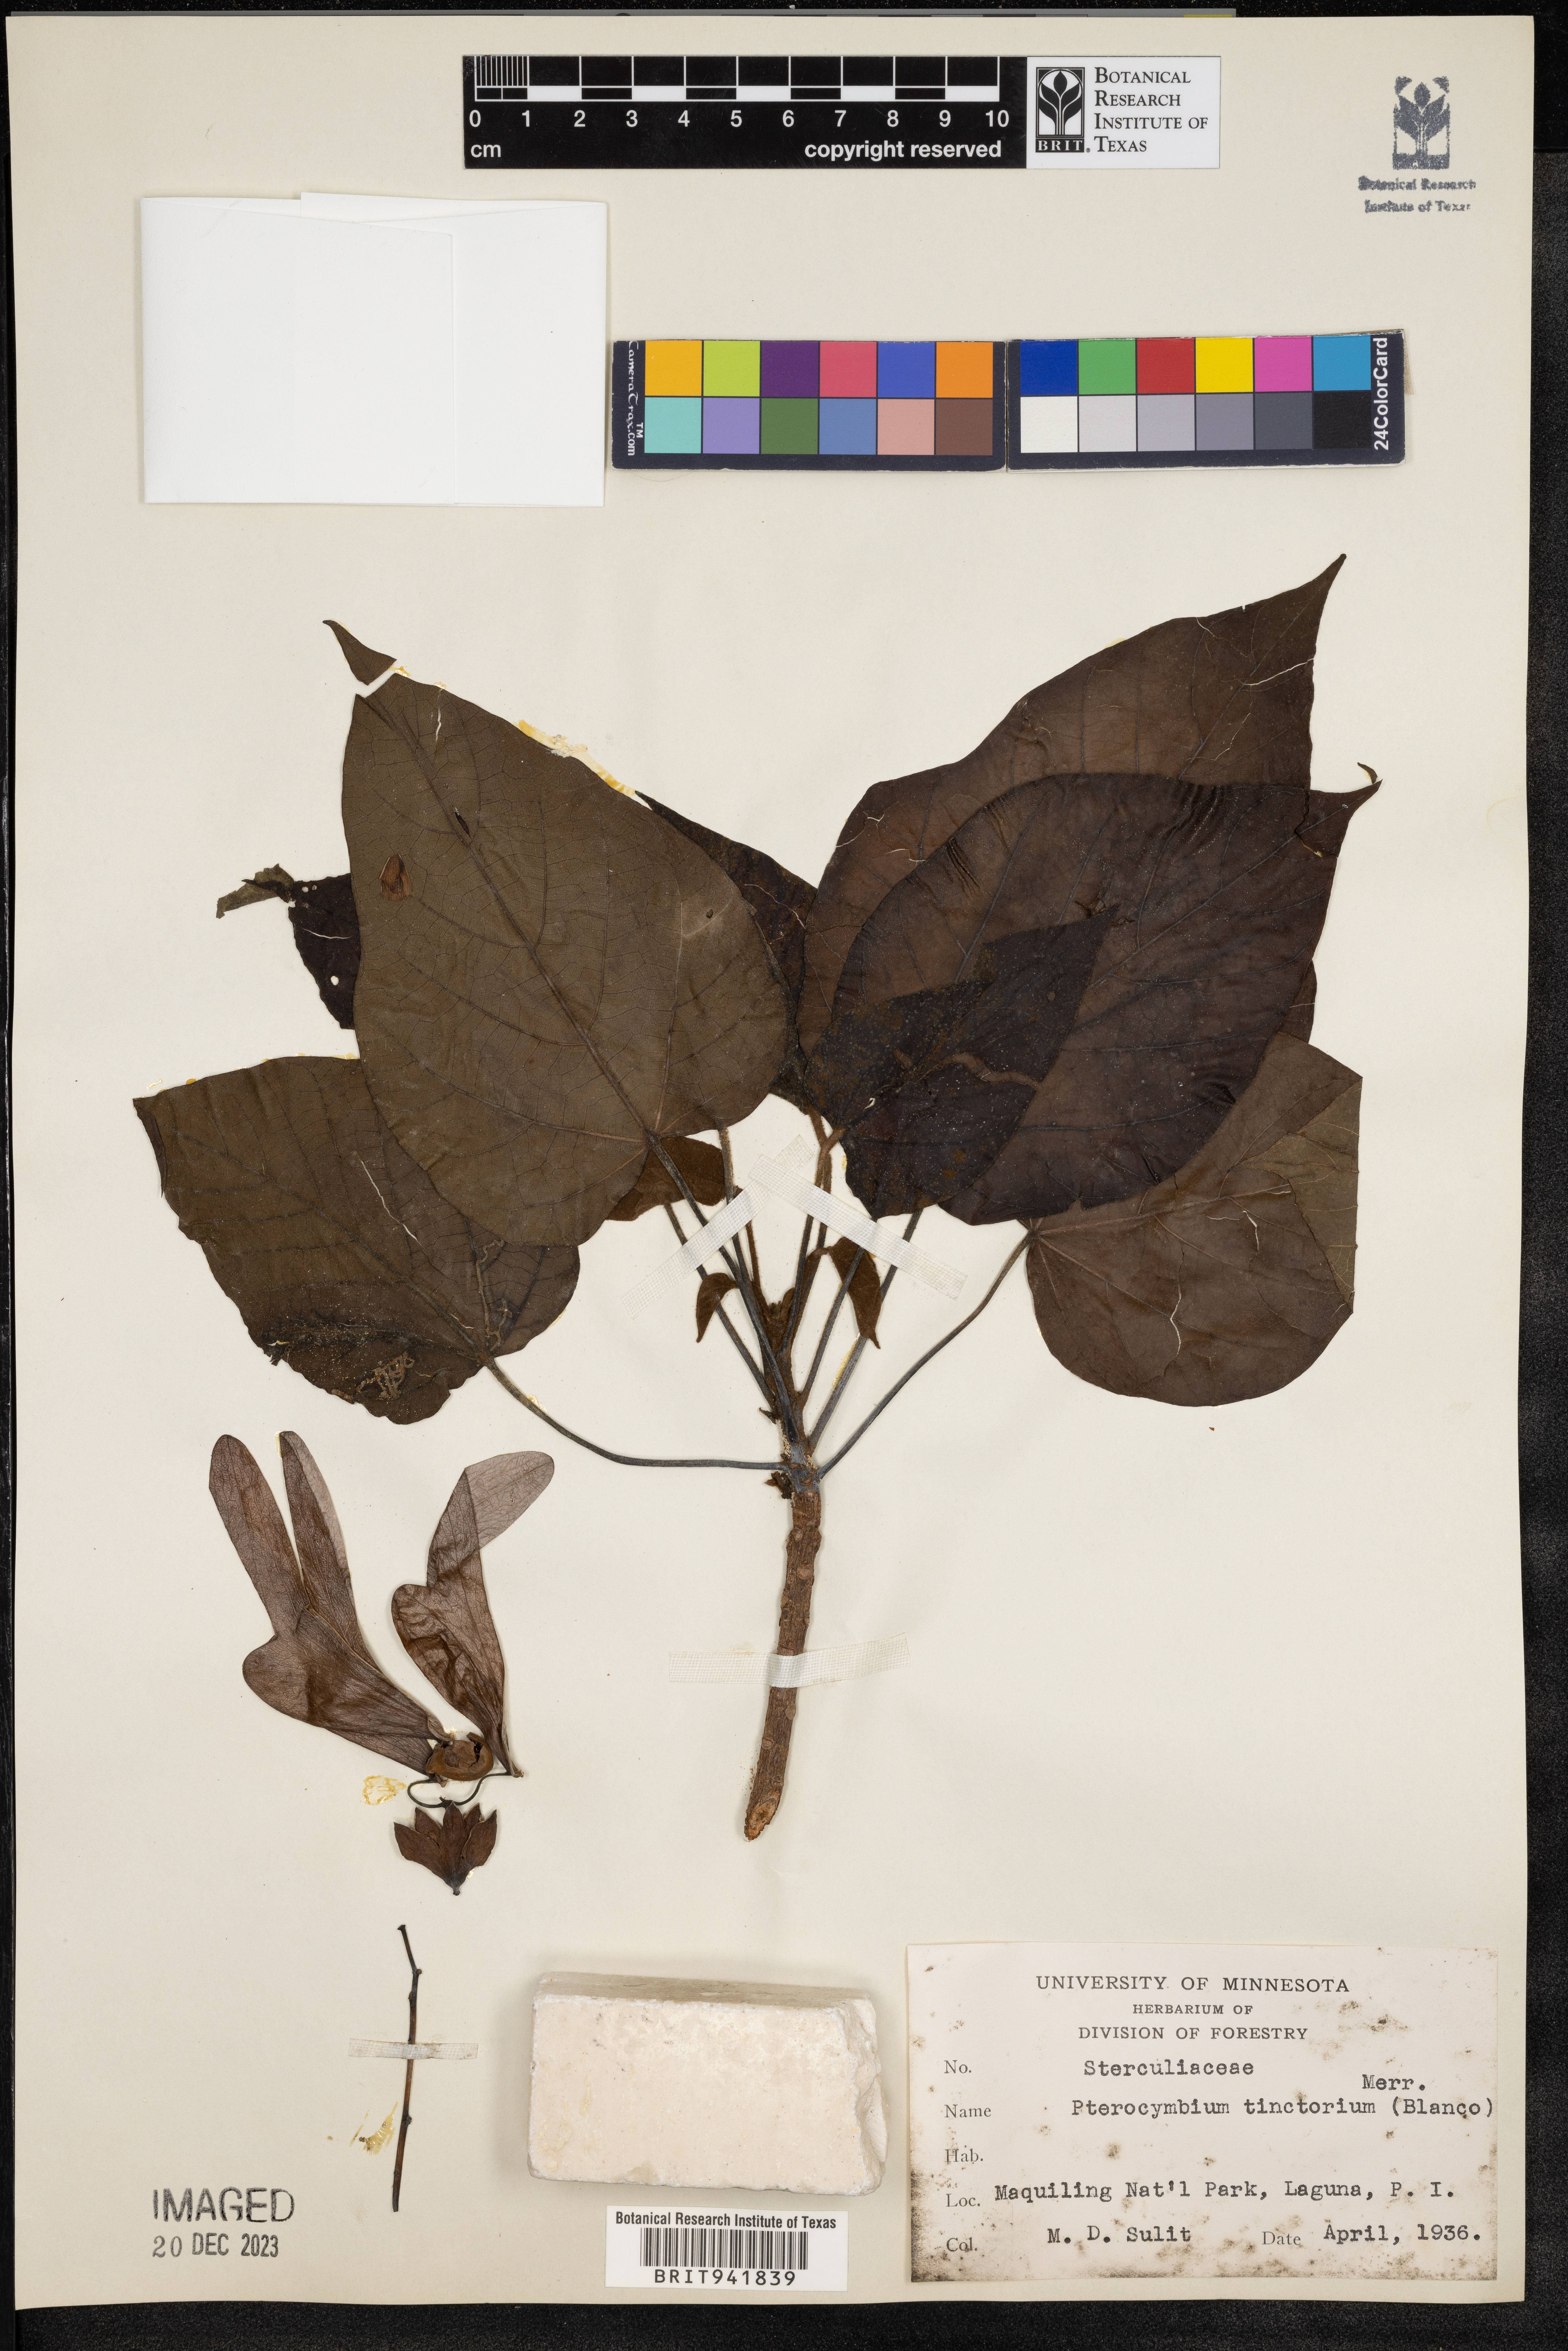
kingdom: Plantae
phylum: Tracheophyta
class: Magnoliopsida
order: Malvales
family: Malvaceae
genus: Pterocymbium
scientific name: Pterocymbium
